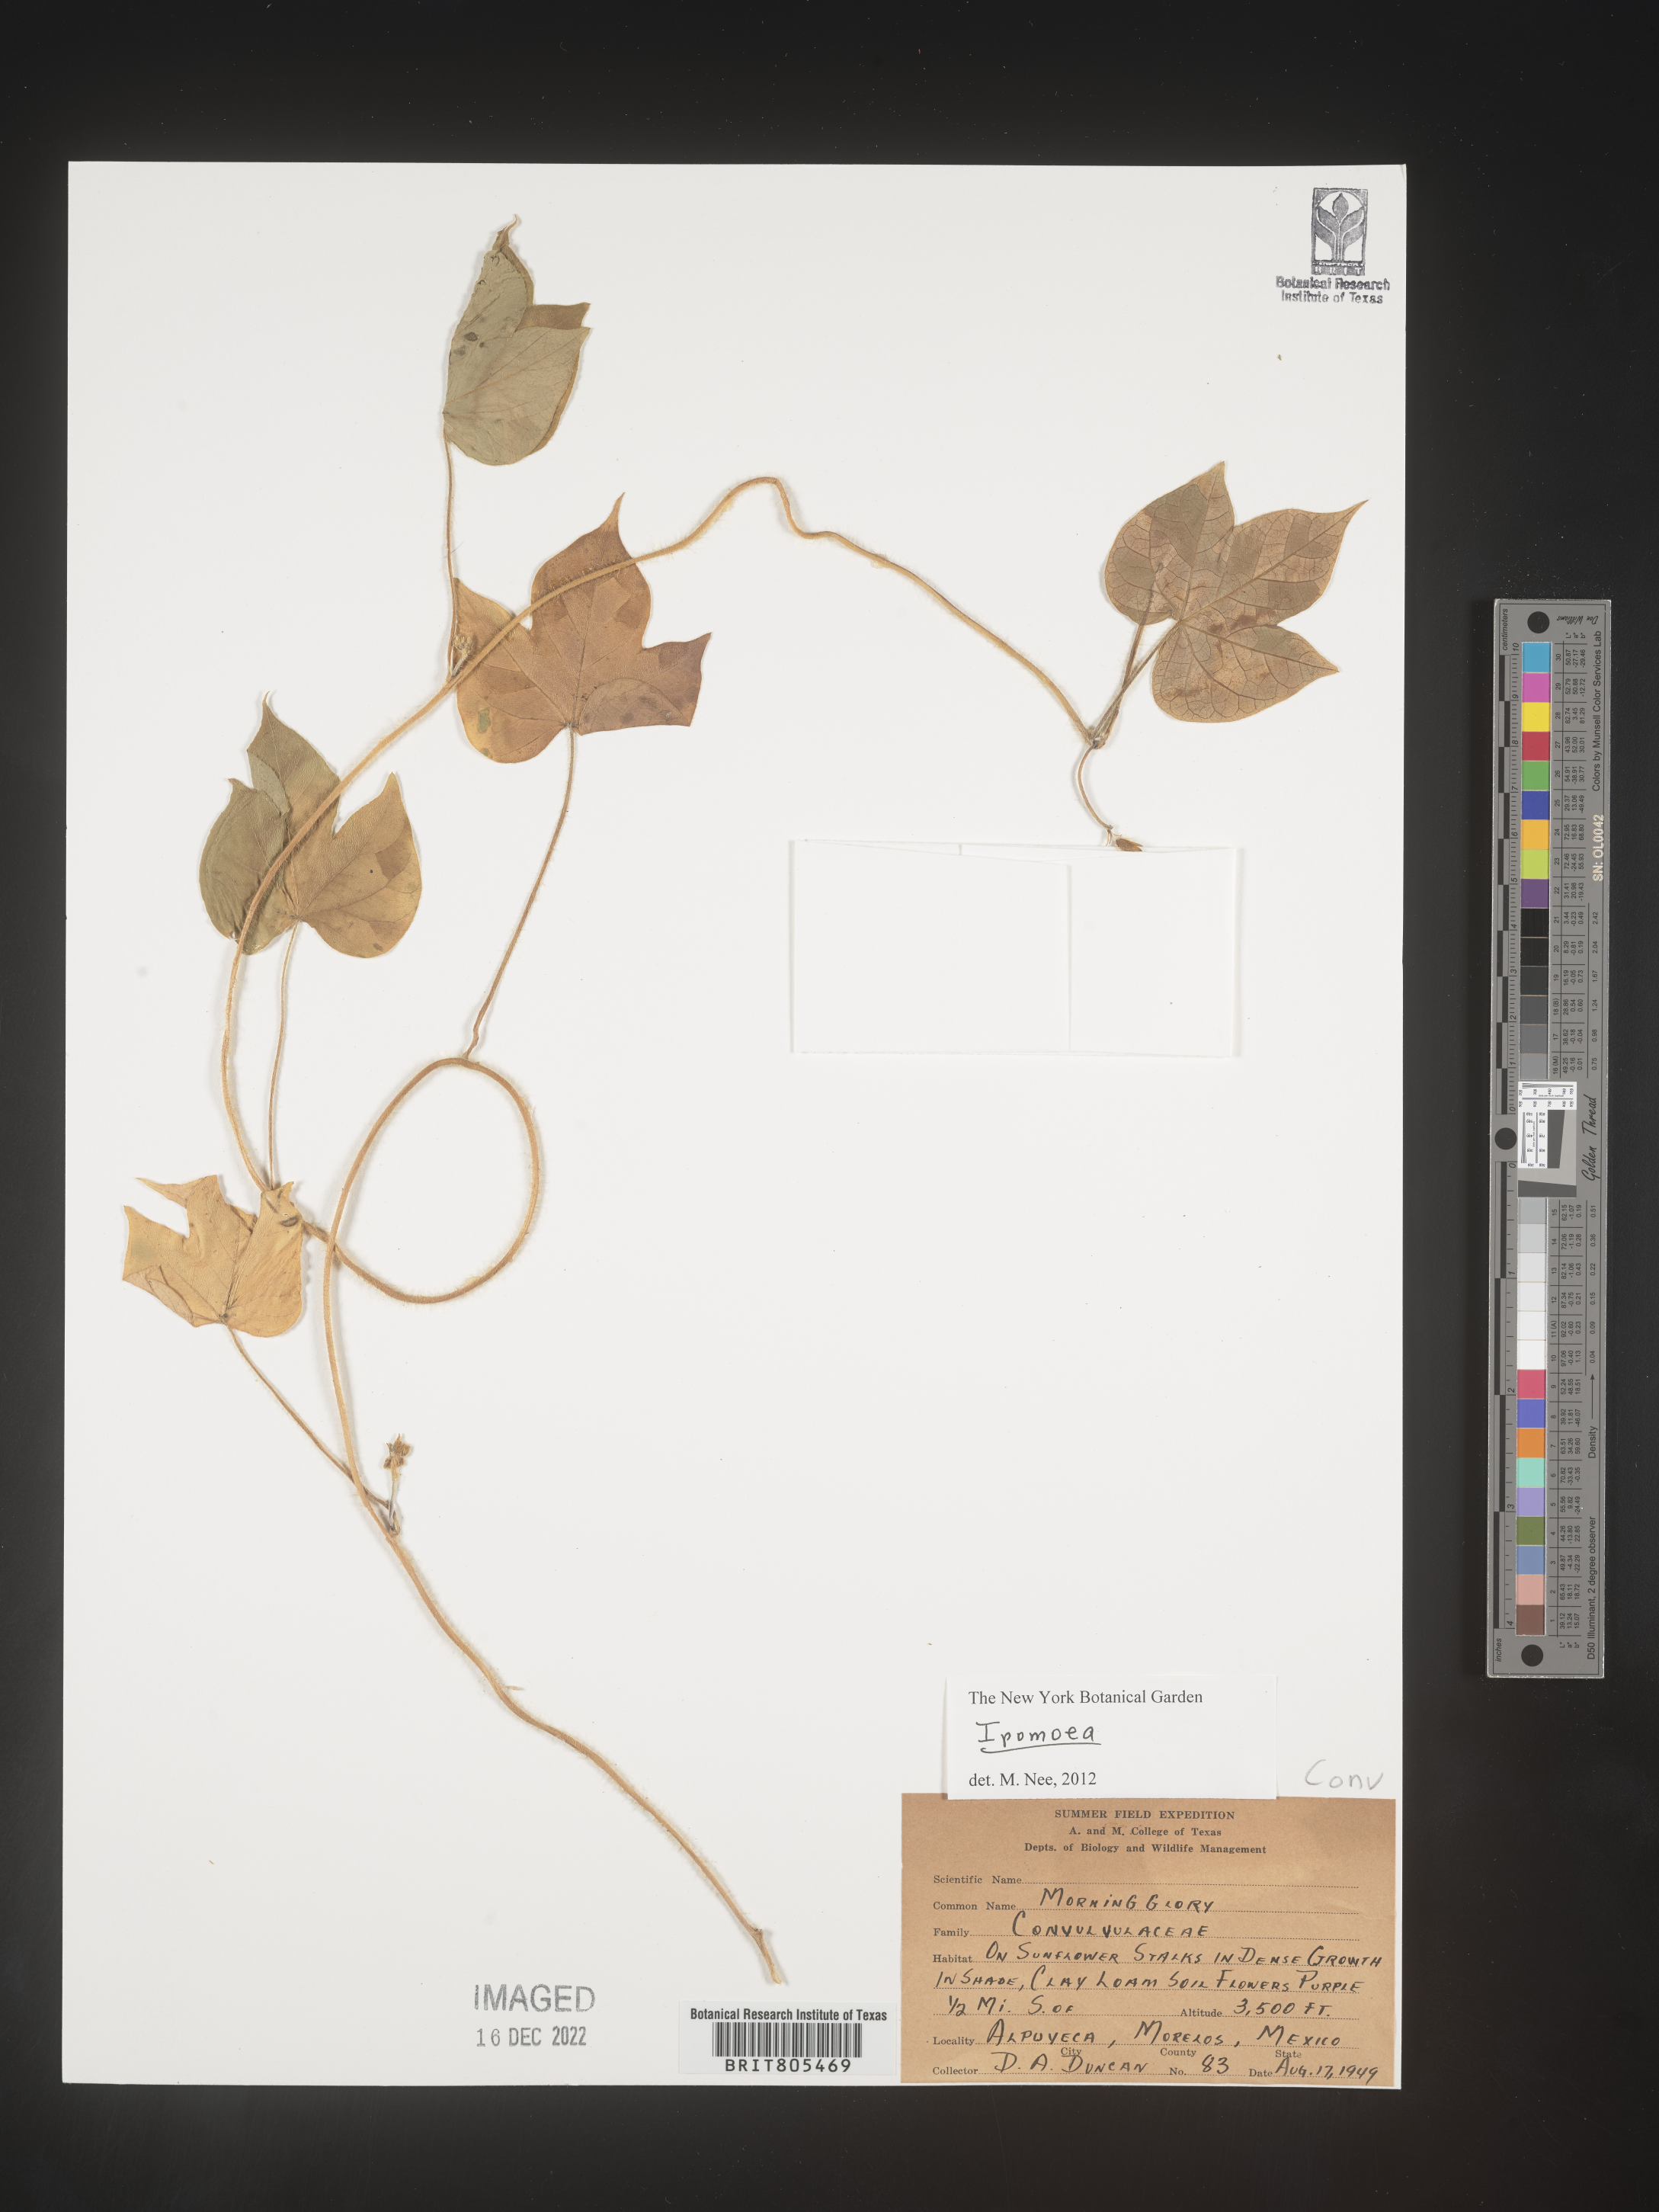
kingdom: Plantae
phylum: Tracheophyta
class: Magnoliopsida
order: Solanales
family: Convolvulaceae
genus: Ipomoea
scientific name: Ipomoea
